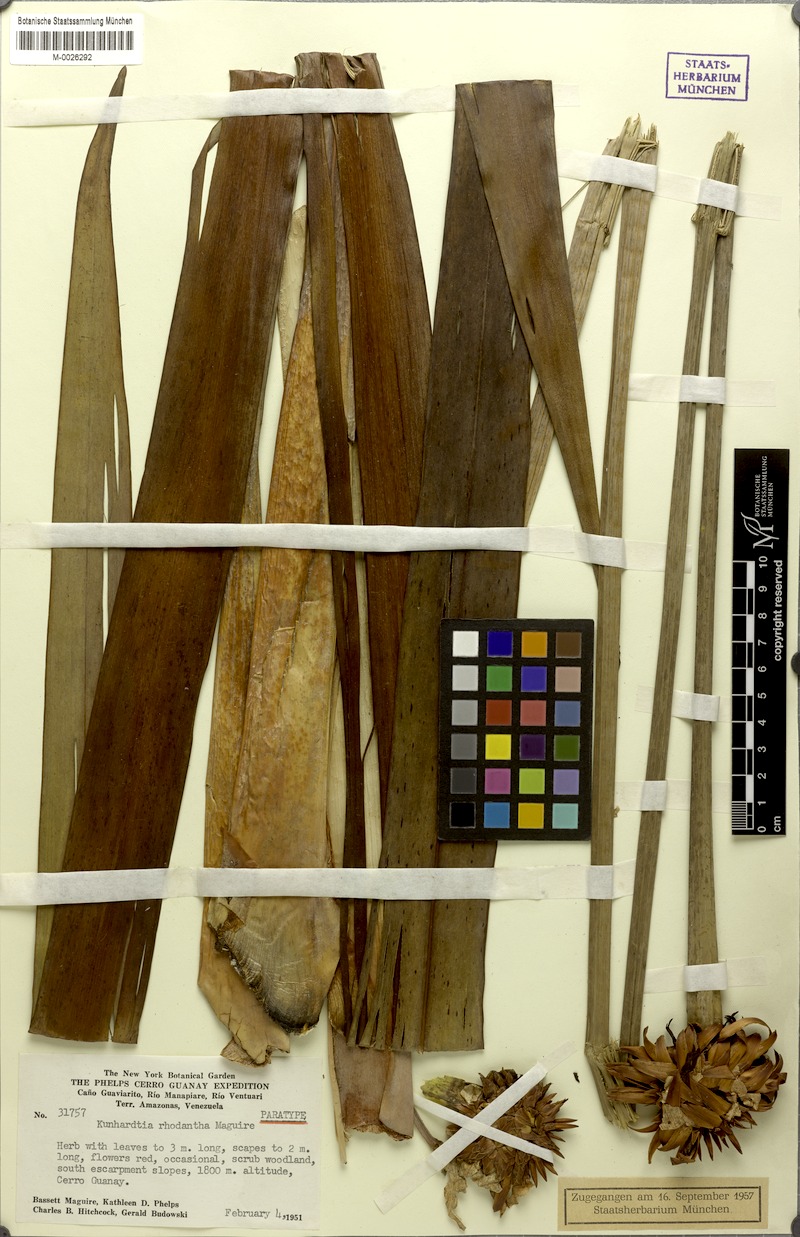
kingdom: Plantae
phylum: Tracheophyta
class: Liliopsida
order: Poales
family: Rapateaceae
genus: Kunhardtia
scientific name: Kunhardtia rhodantha
